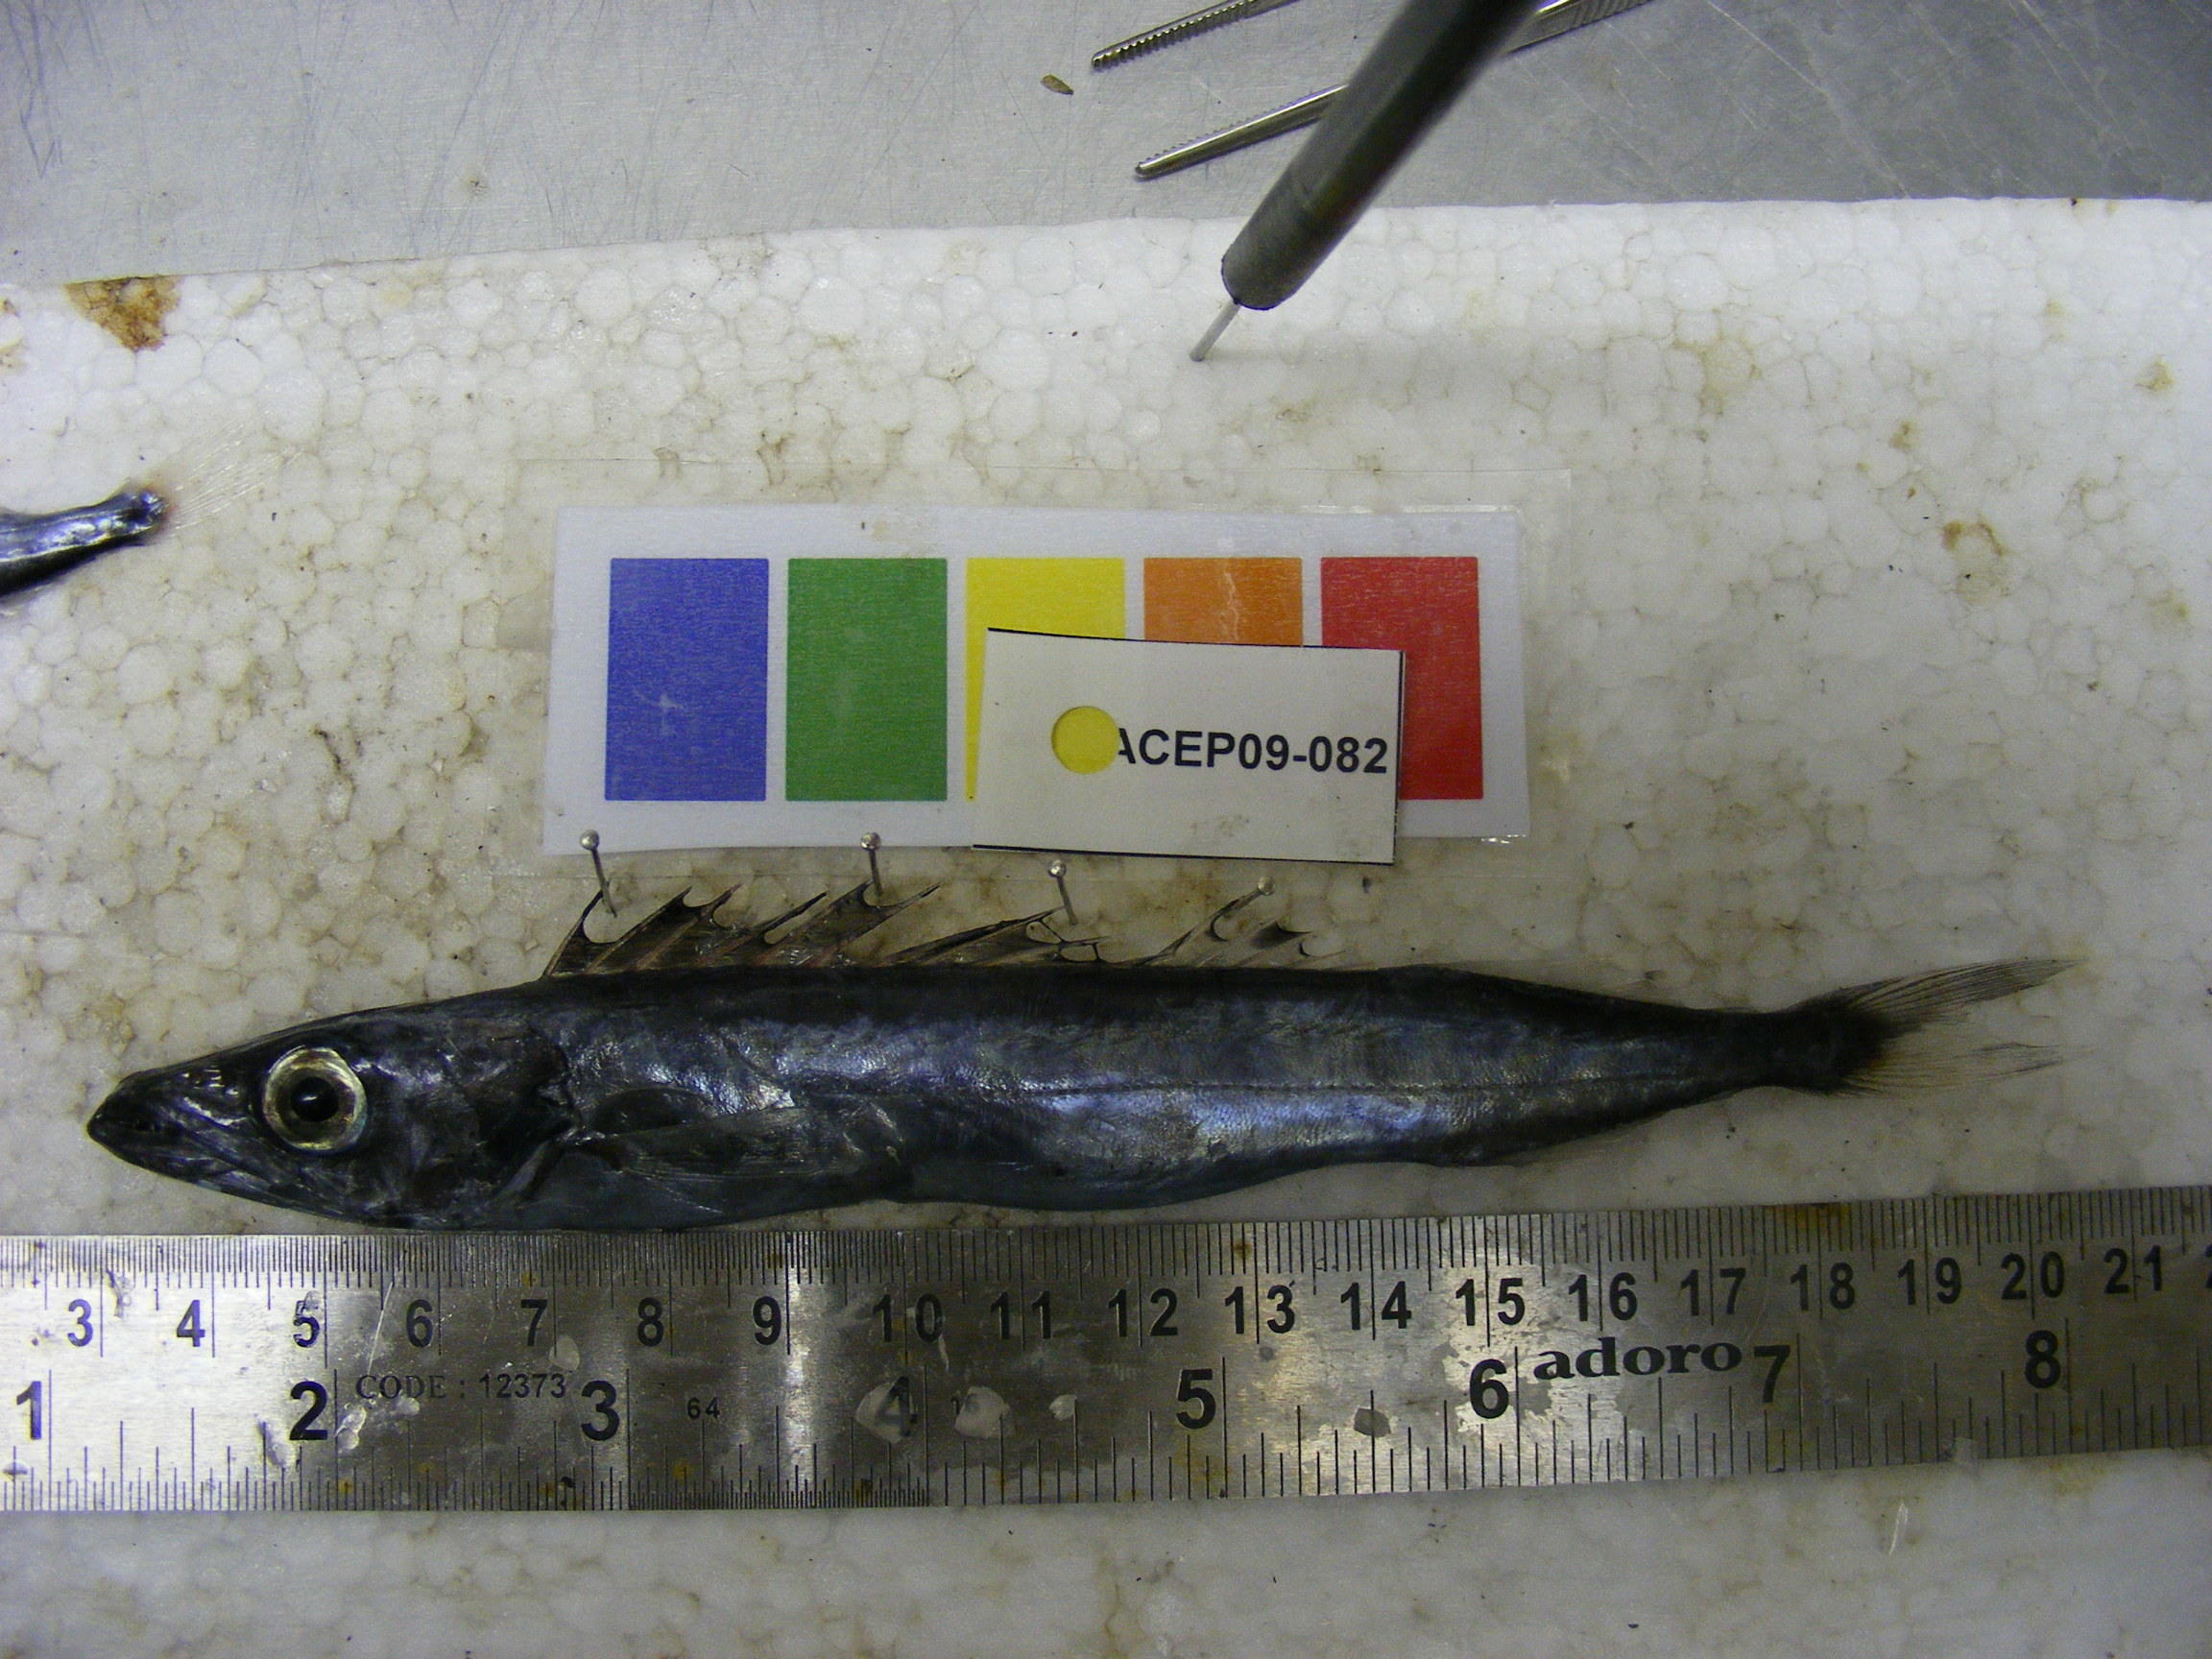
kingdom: Animalia
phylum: Chordata
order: Perciformes
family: Gempylidae
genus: Rexea
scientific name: Rexea prometheoides
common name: Royal escolar
